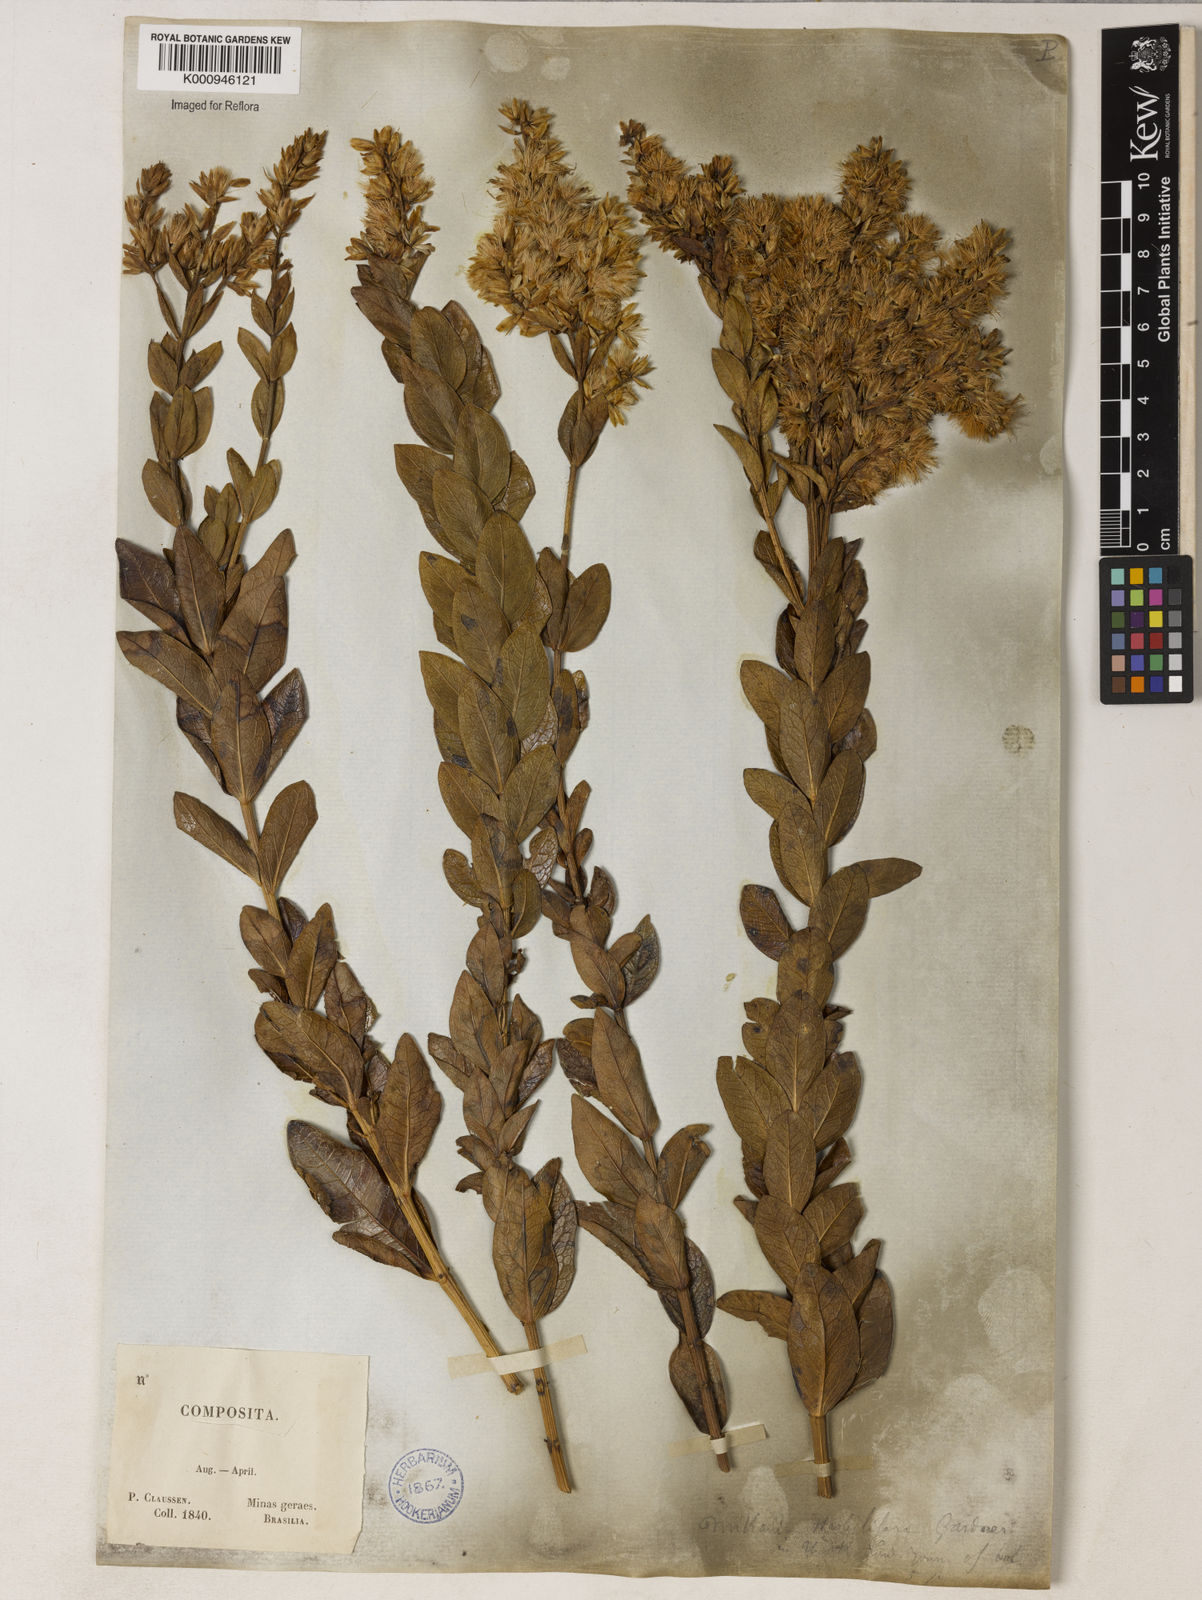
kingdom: Plantae
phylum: Tracheophyta
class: Magnoliopsida
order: Asterales
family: Asteraceae
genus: Mikania
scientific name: Mikania oblongifolia
